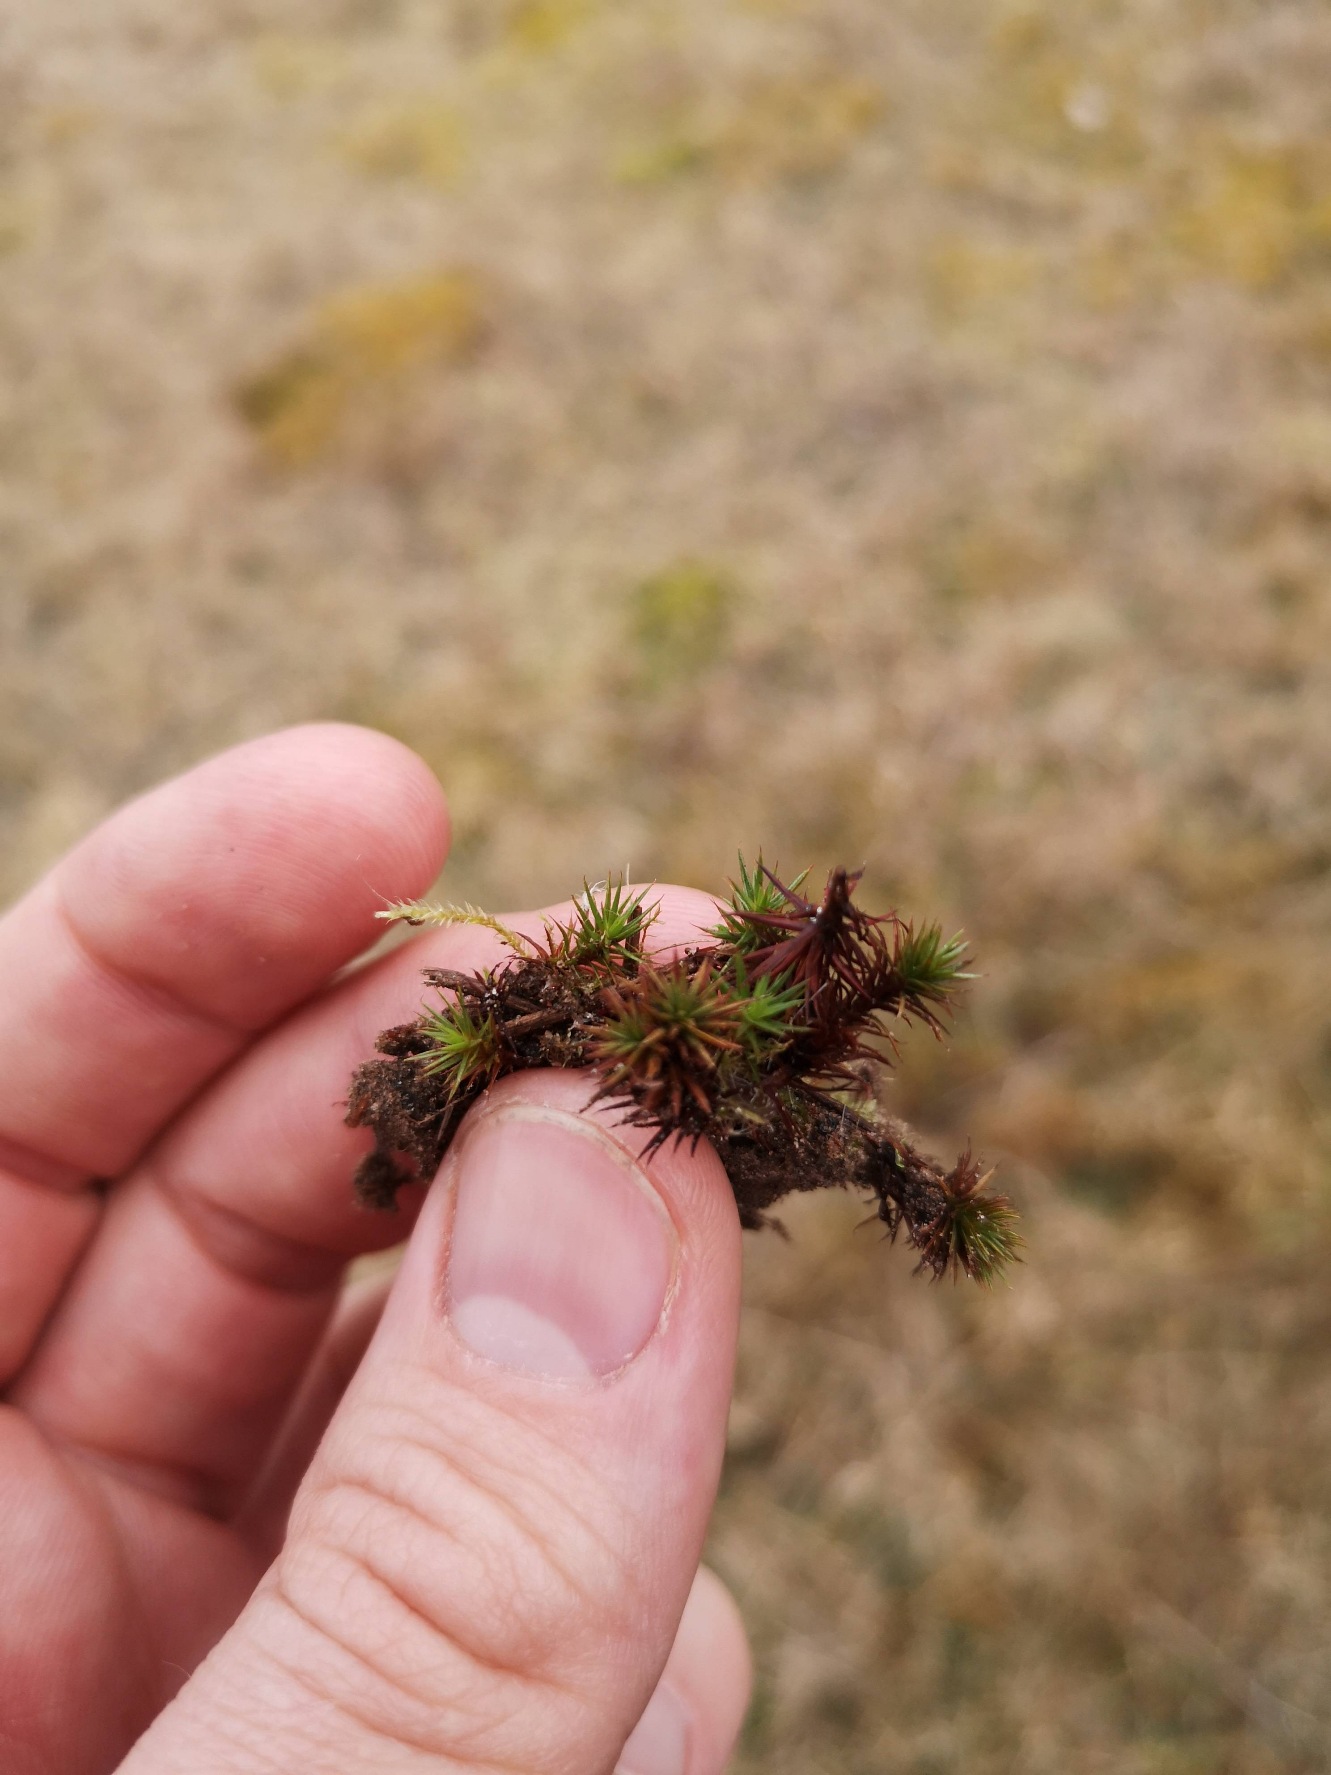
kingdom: Plantae
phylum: Bryophyta
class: Polytrichopsida
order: Polytrichales
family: Polytrichaceae
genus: Polytrichum
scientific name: Polytrichum juniperinum
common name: Ene-jomfruhår
